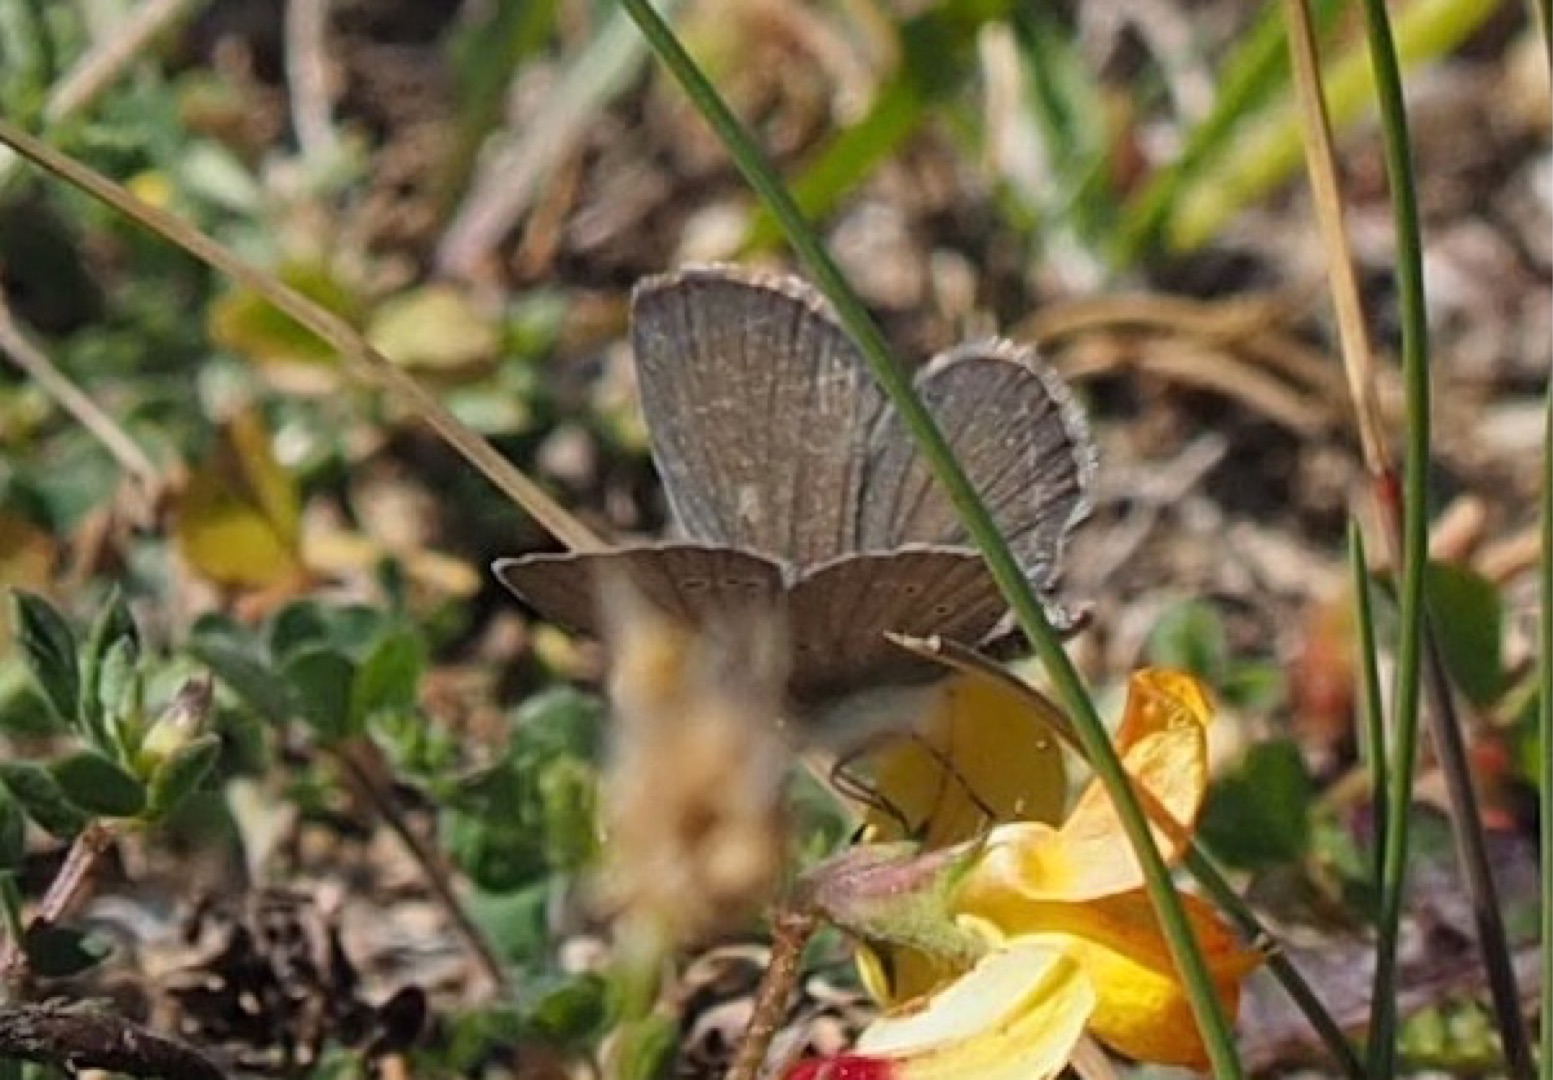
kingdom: Animalia
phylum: Arthropoda
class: Insecta
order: Lepidoptera
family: Lycaenidae
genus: Cupido
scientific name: Cupido minimus
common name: Dværgblåfugl
